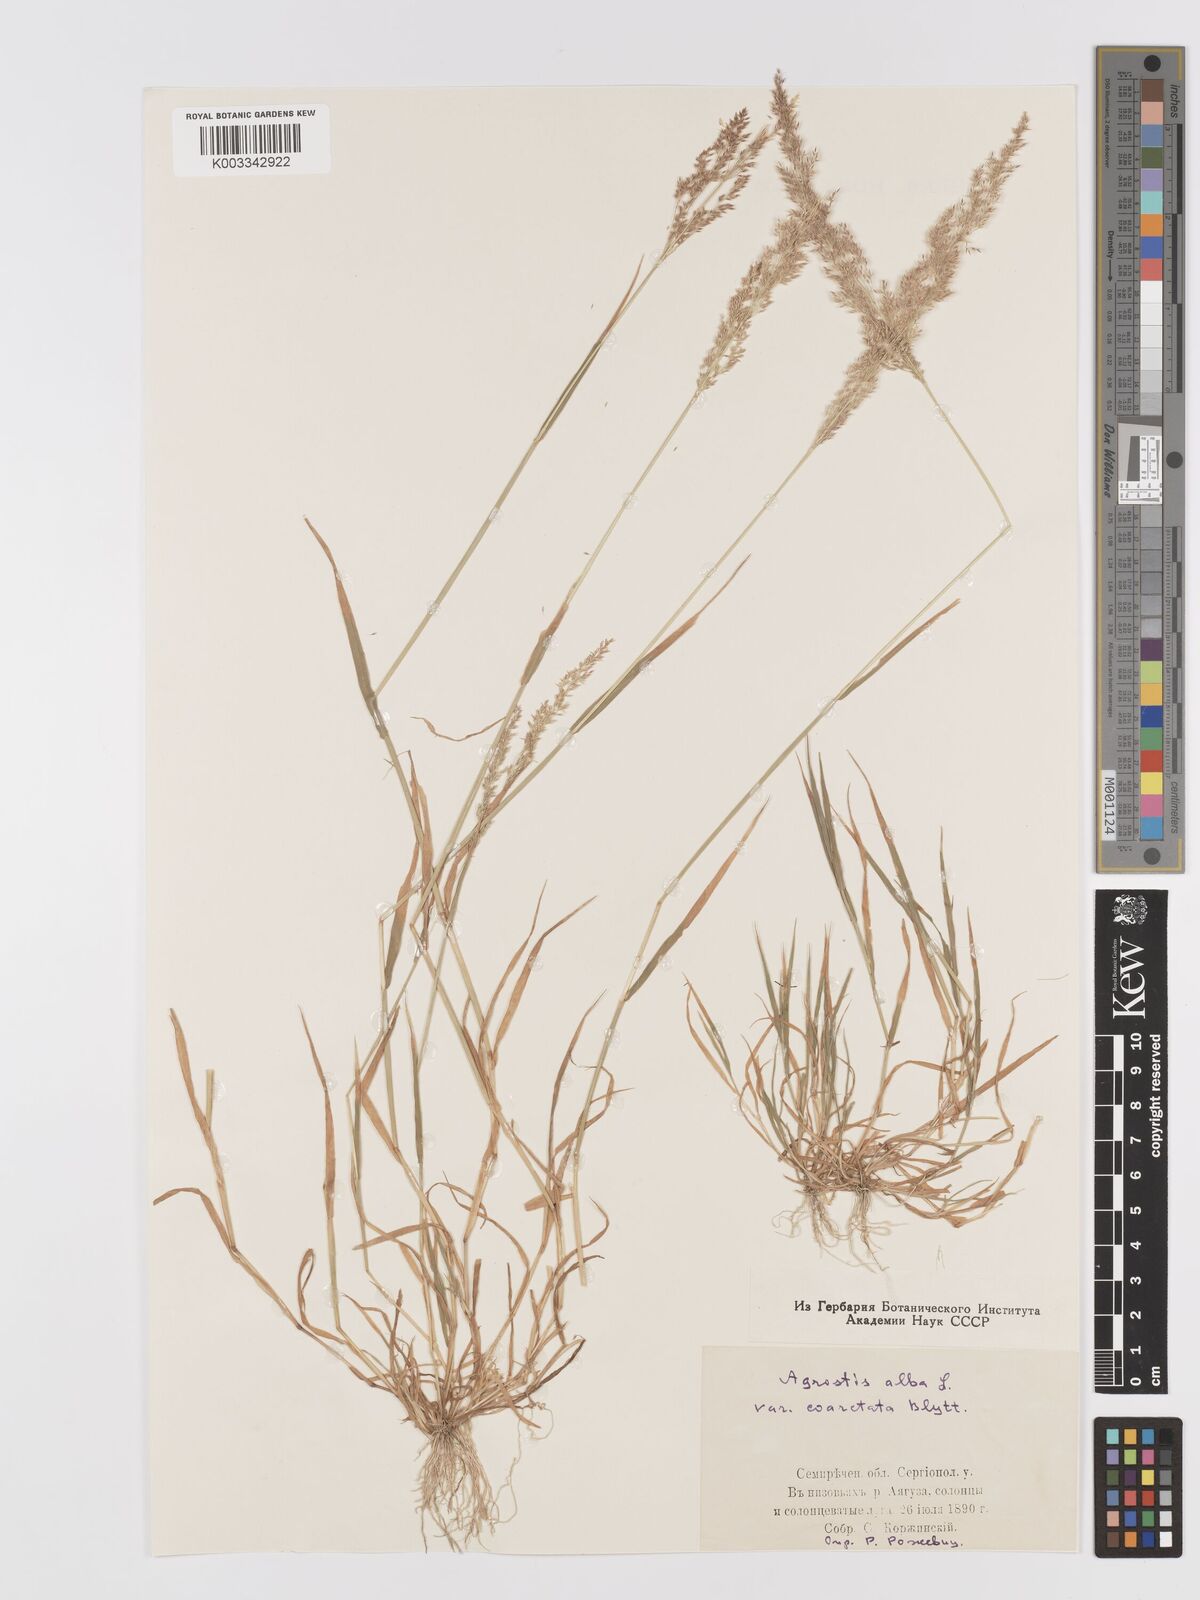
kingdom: Plantae
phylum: Tracheophyta
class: Liliopsida
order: Poales
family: Poaceae
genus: Agrostis
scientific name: Agrostis gigantea
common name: Black bent
